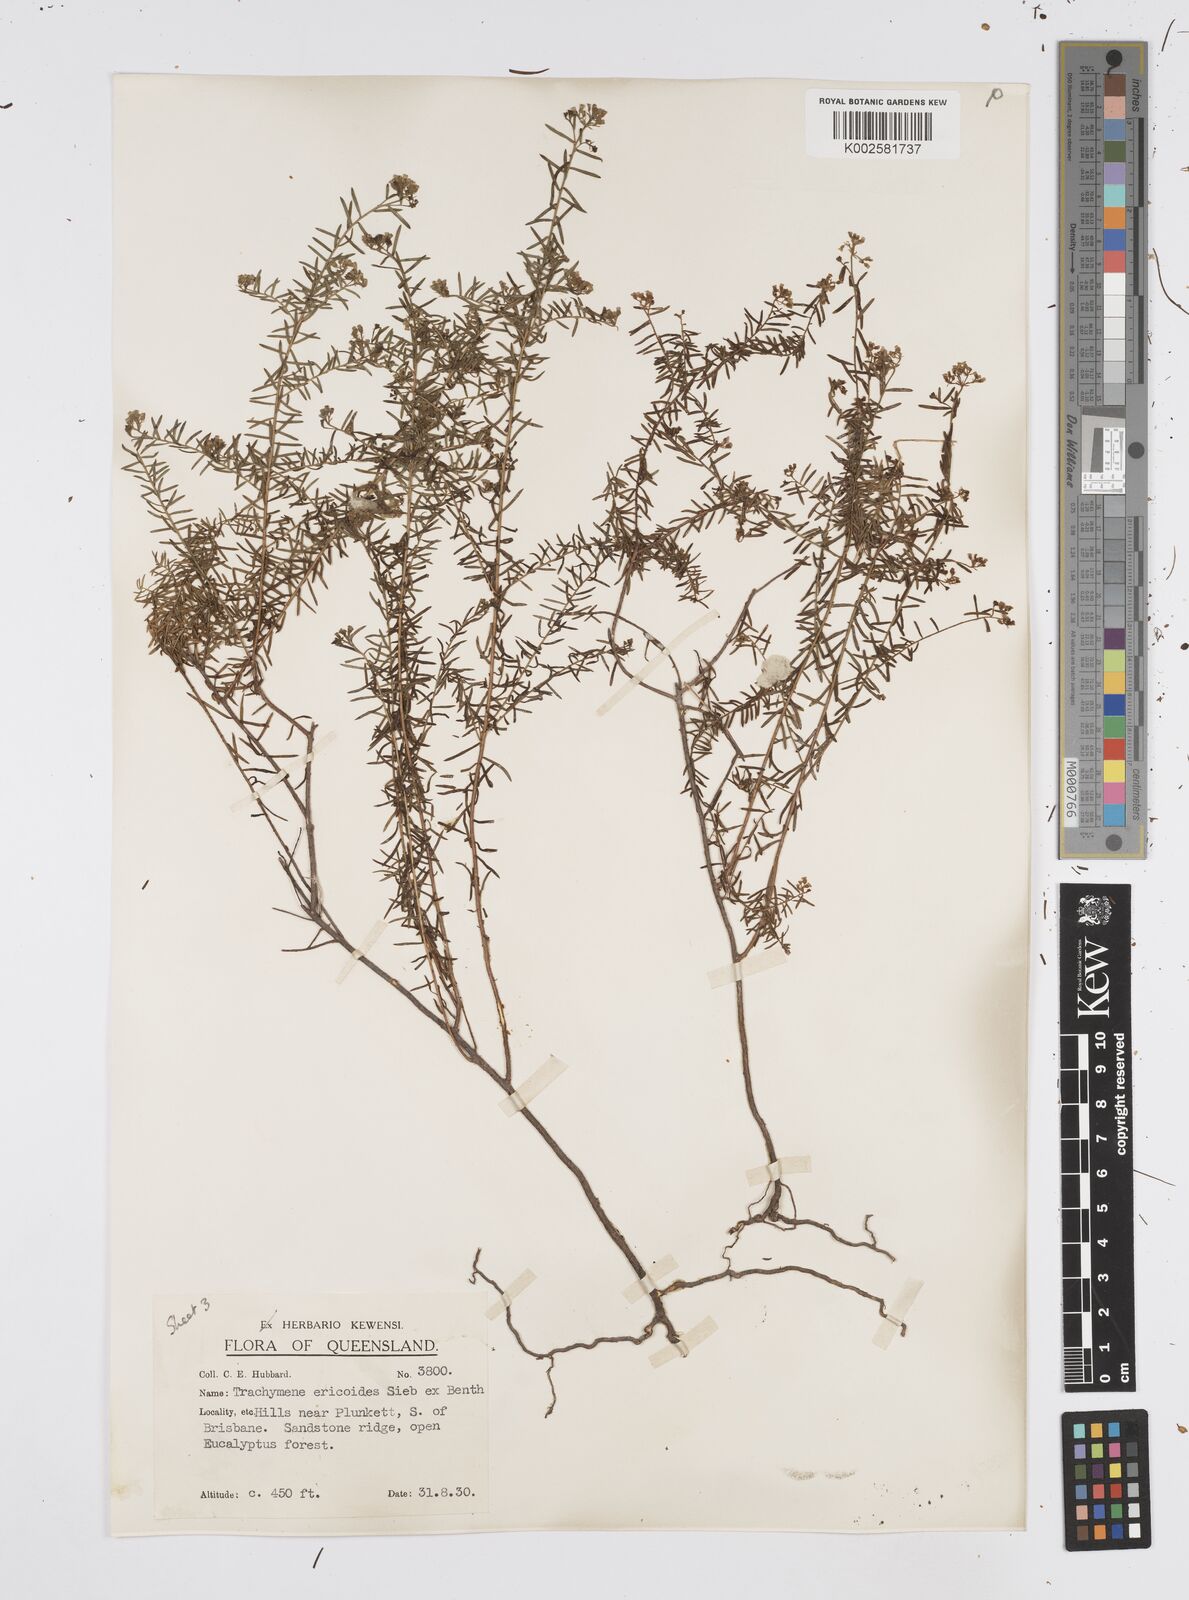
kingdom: Plantae
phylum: Tracheophyta
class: Magnoliopsida
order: Apiales
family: Apiaceae
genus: Platysace
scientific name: Platysace ericoides
